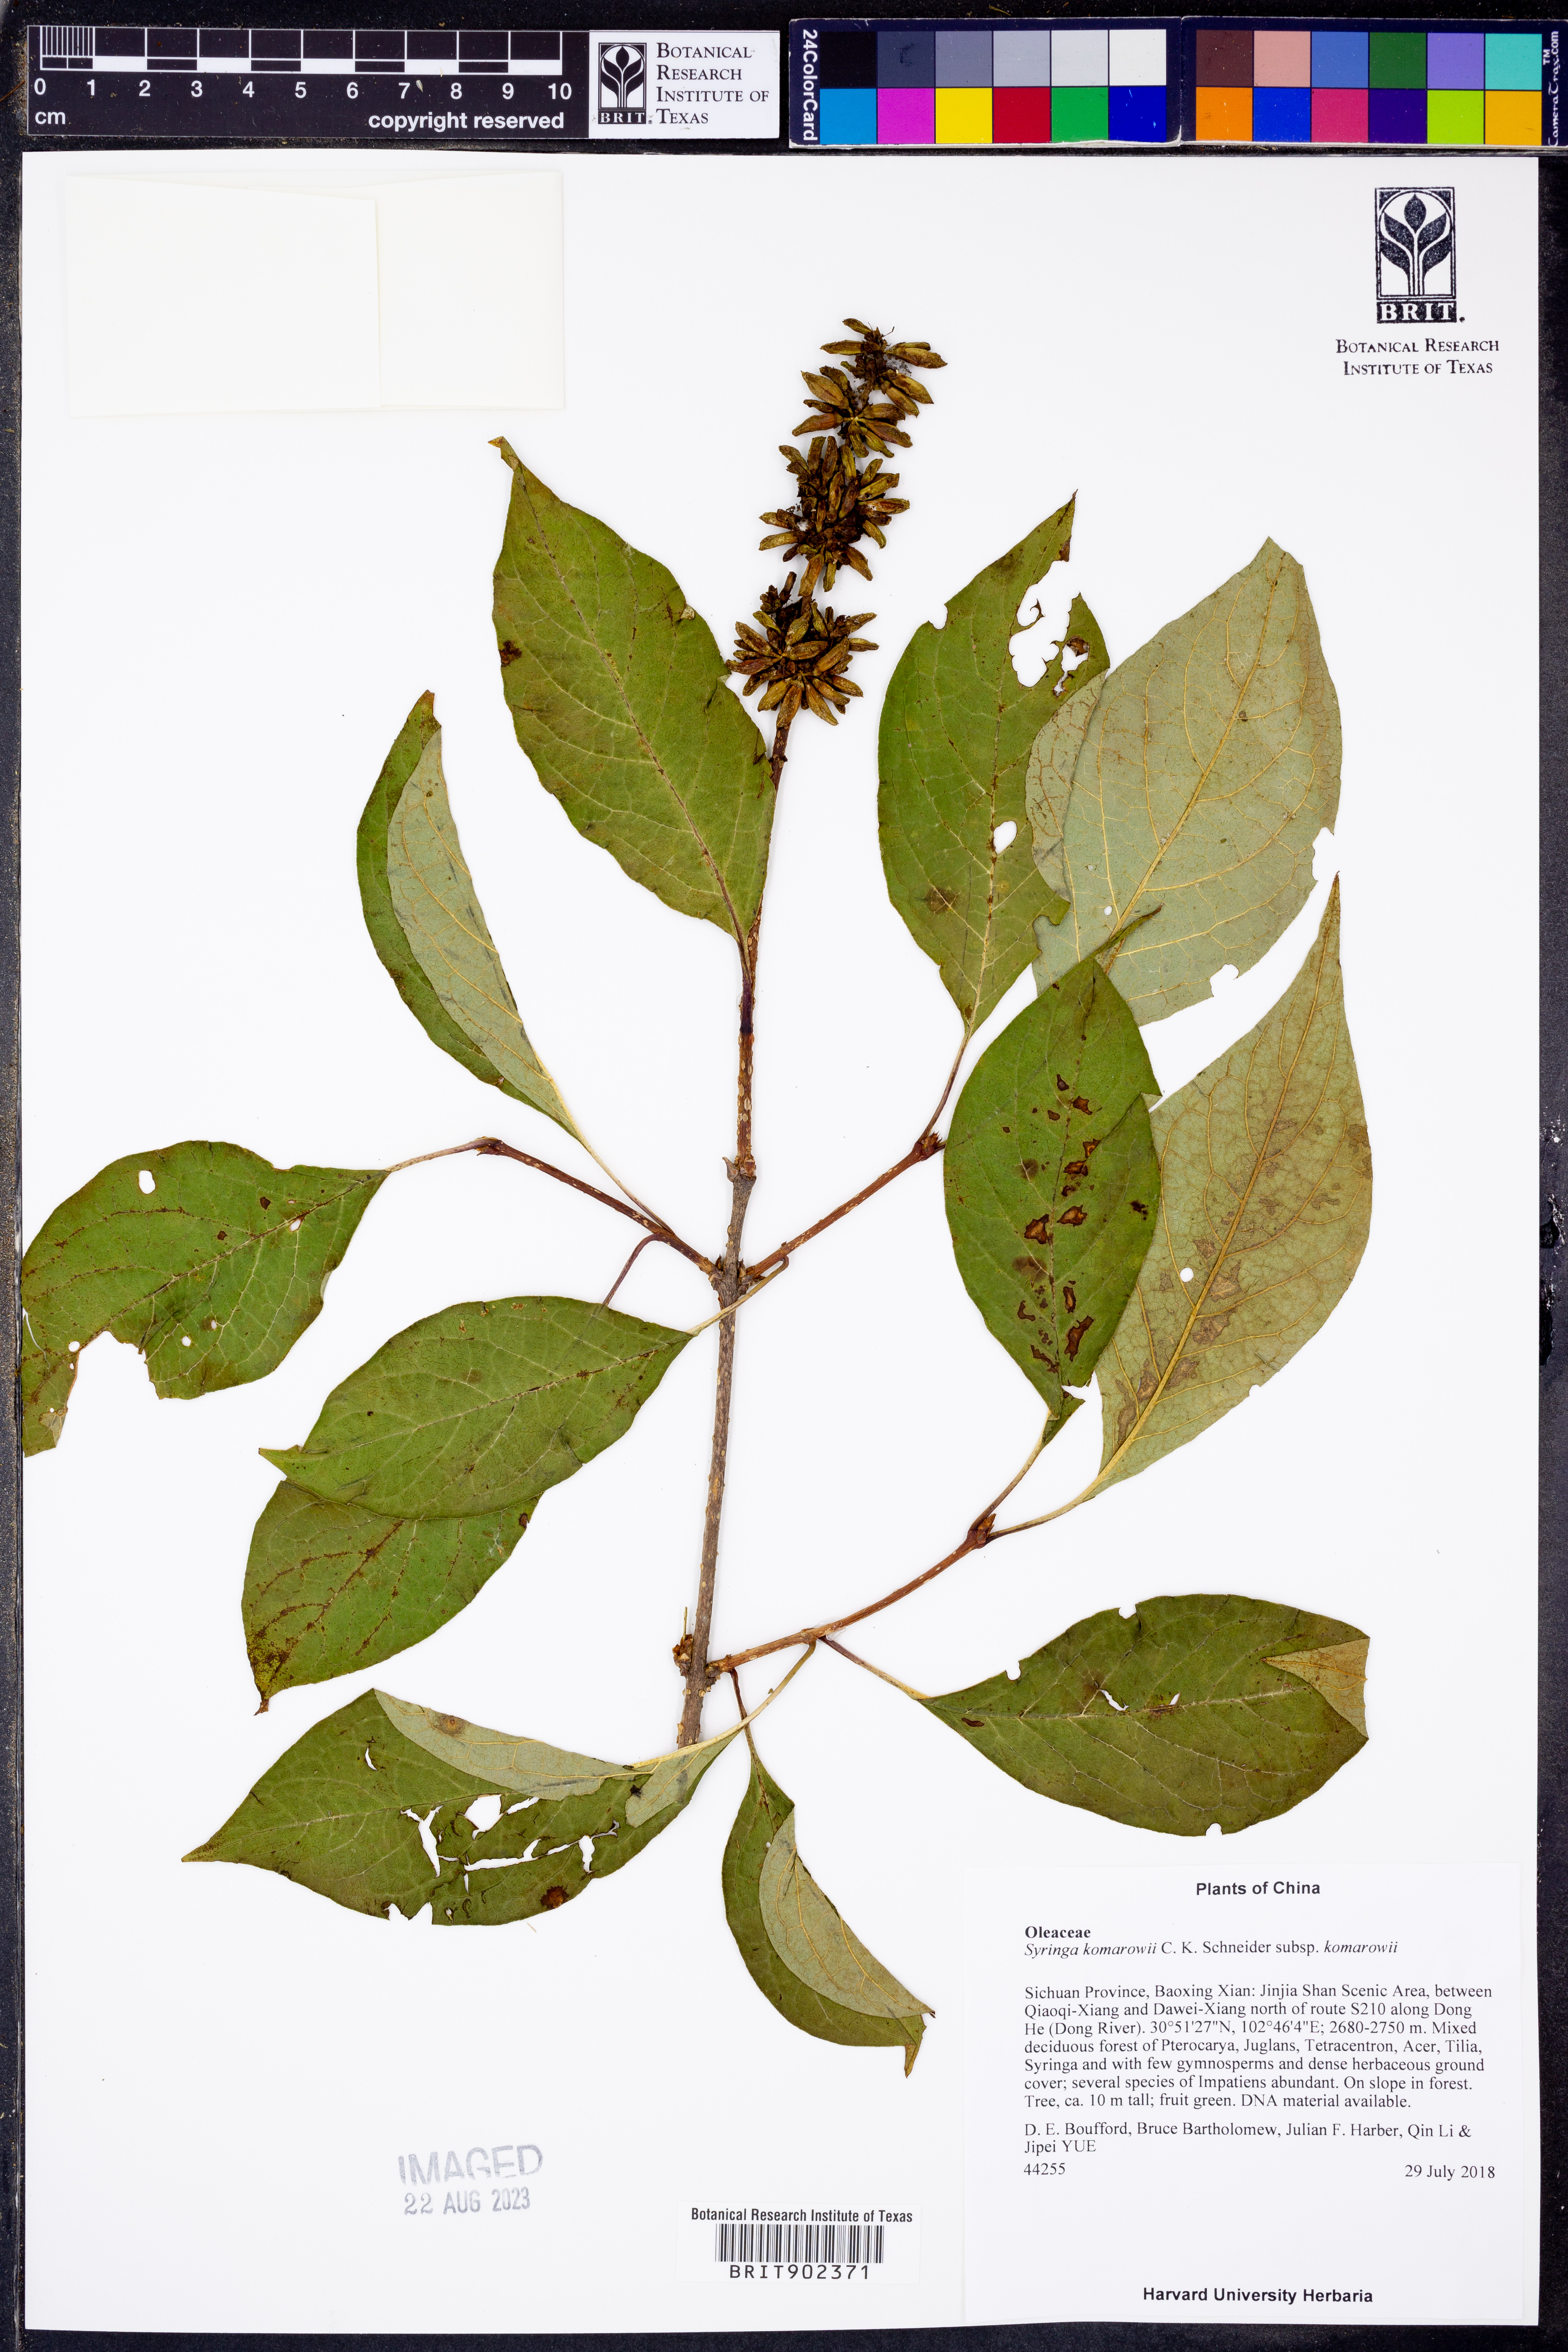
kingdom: Plantae
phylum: Tracheophyta
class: Magnoliopsida
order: Lamiales
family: Oleaceae
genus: Syringa
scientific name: Syringa komarowii
